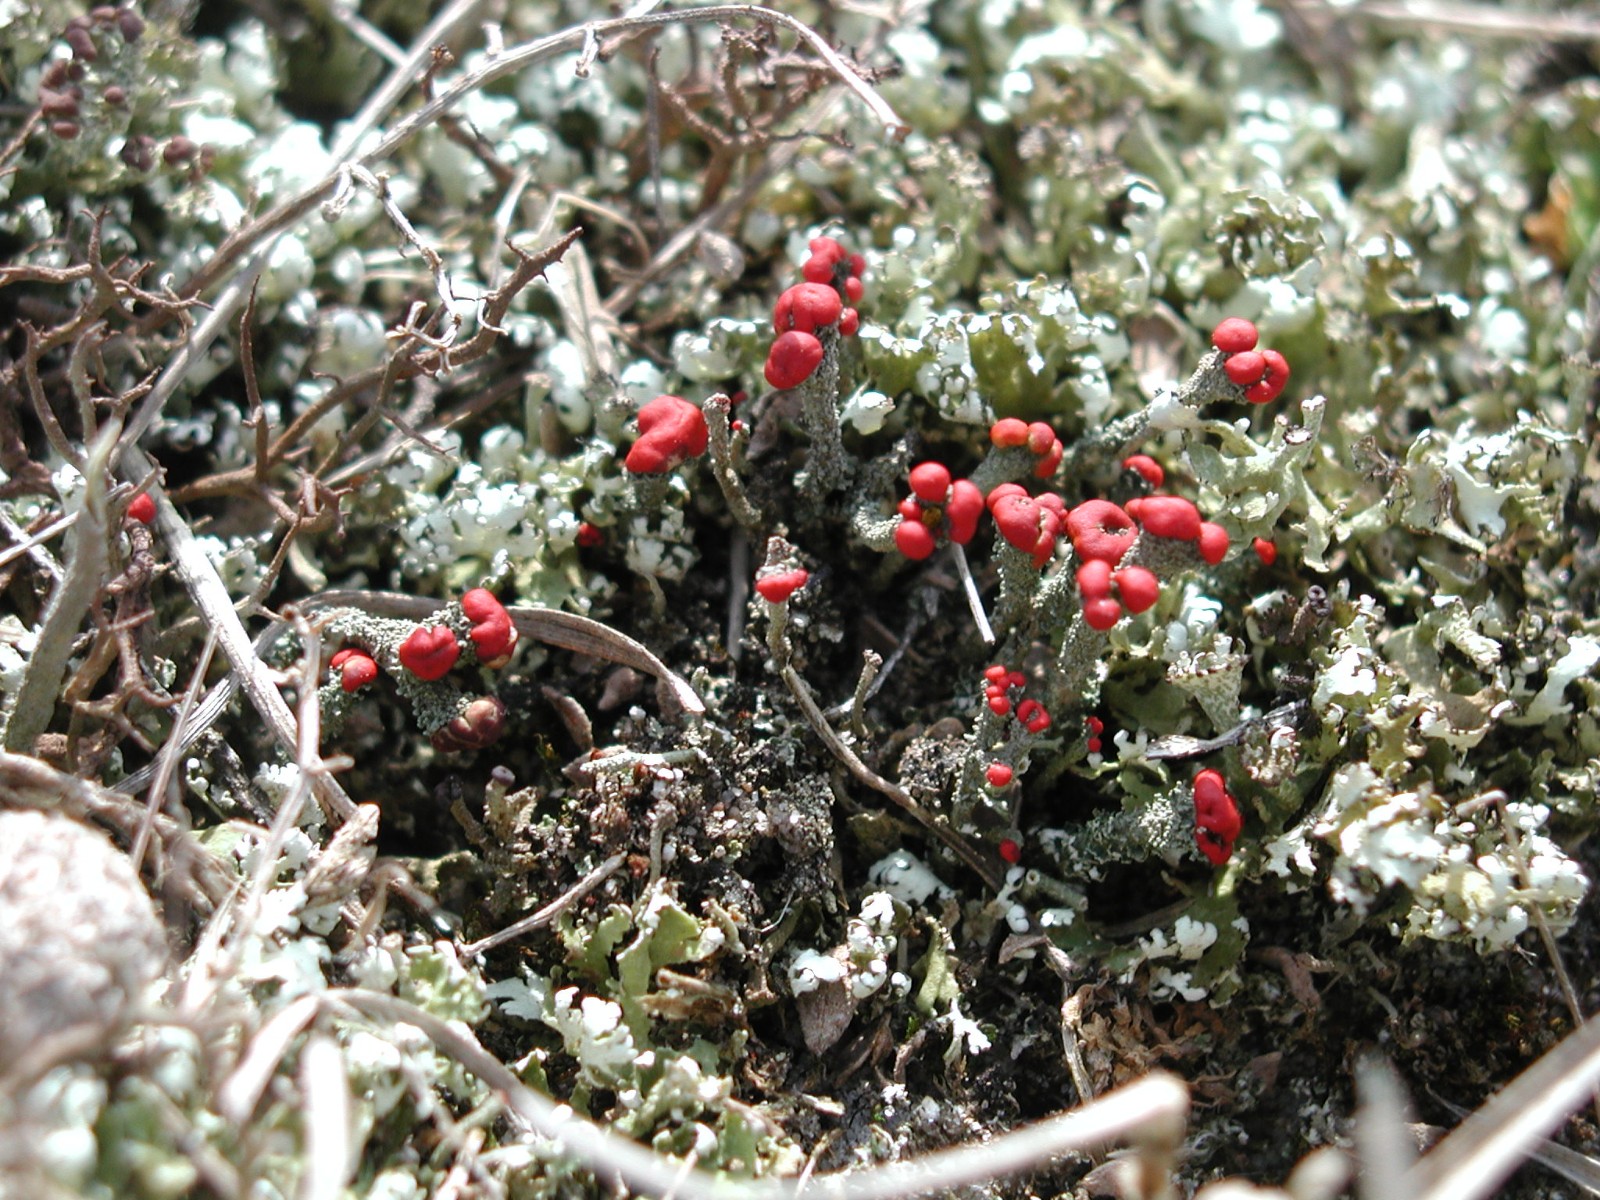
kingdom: Fungi
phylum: Ascomycota
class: Lecanoromycetes
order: Lecanorales
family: Cladoniaceae
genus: Cladonia
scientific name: Cladonia floerkeana
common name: lakrød bægerlav
